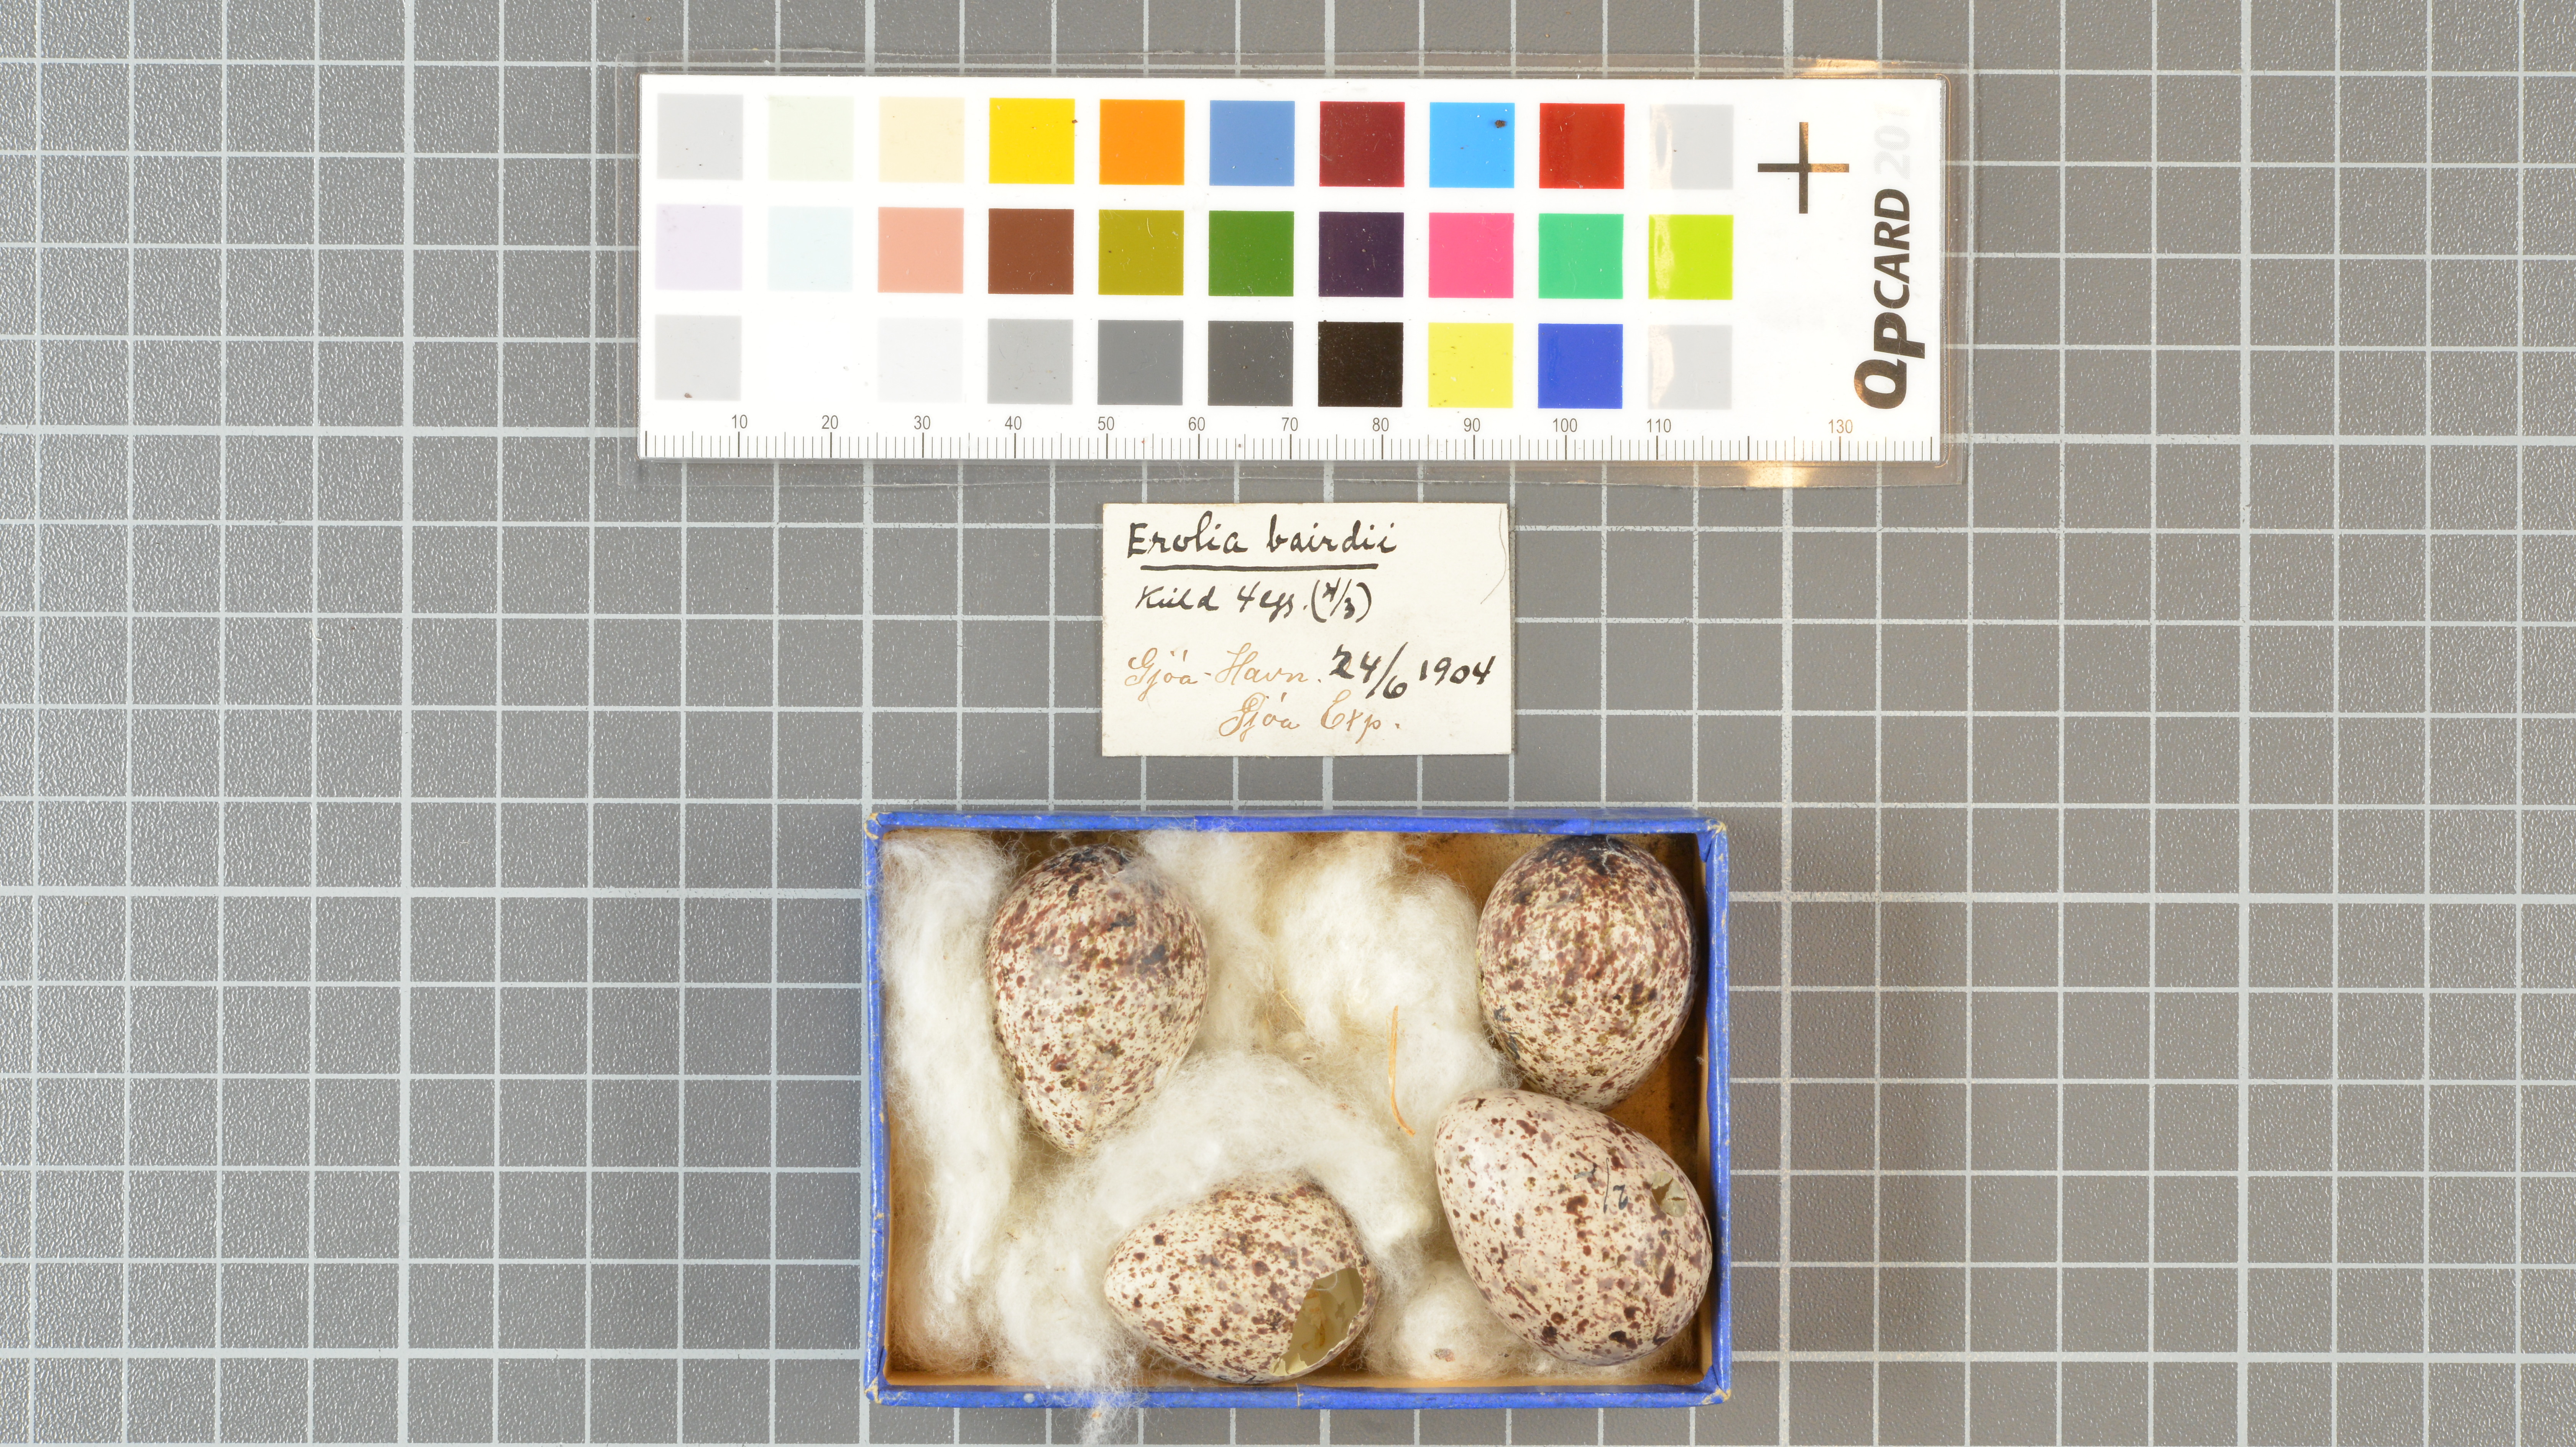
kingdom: Animalia
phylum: Chordata
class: Aves
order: Charadriiformes
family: Scolopacidae
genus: Calidris
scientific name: Calidris bairdii
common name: Baird's sandpiper
